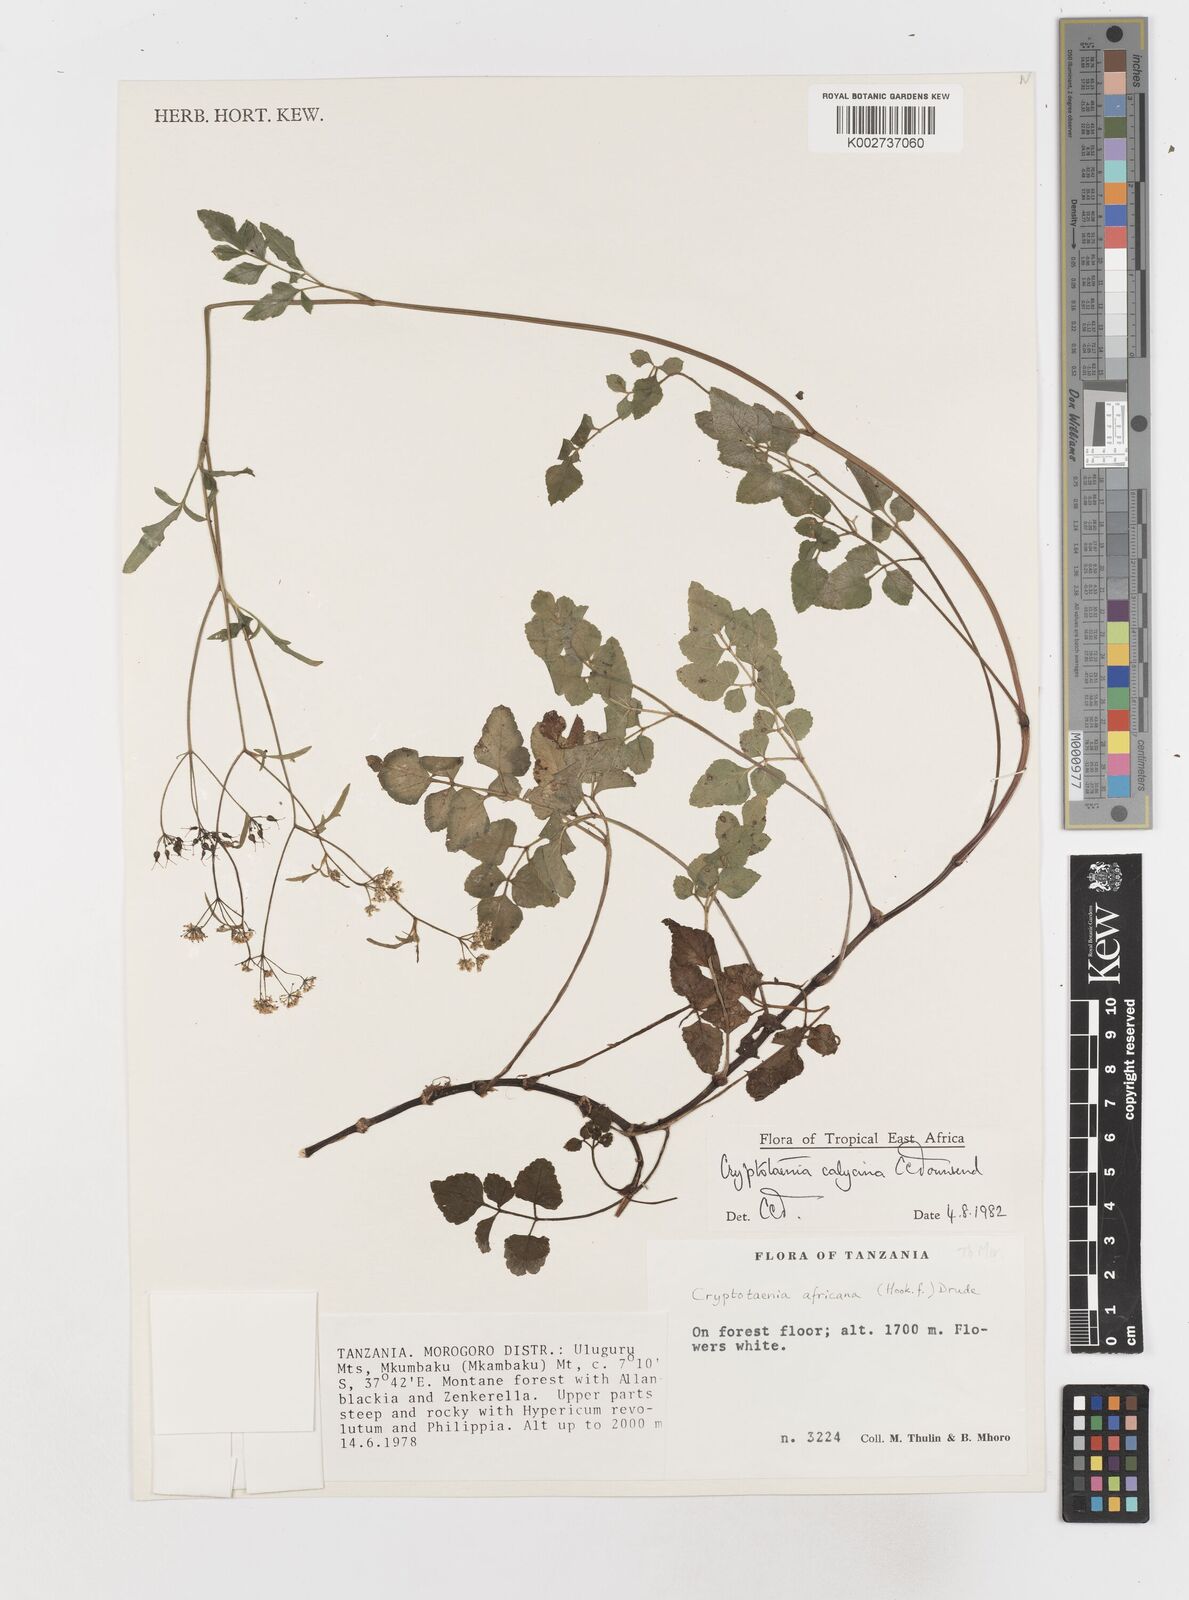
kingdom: Plantae
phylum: Tracheophyta
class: Magnoliopsida
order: Apiales
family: Apiaceae
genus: Cryptotaenia
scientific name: Cryptotaenia calycina
